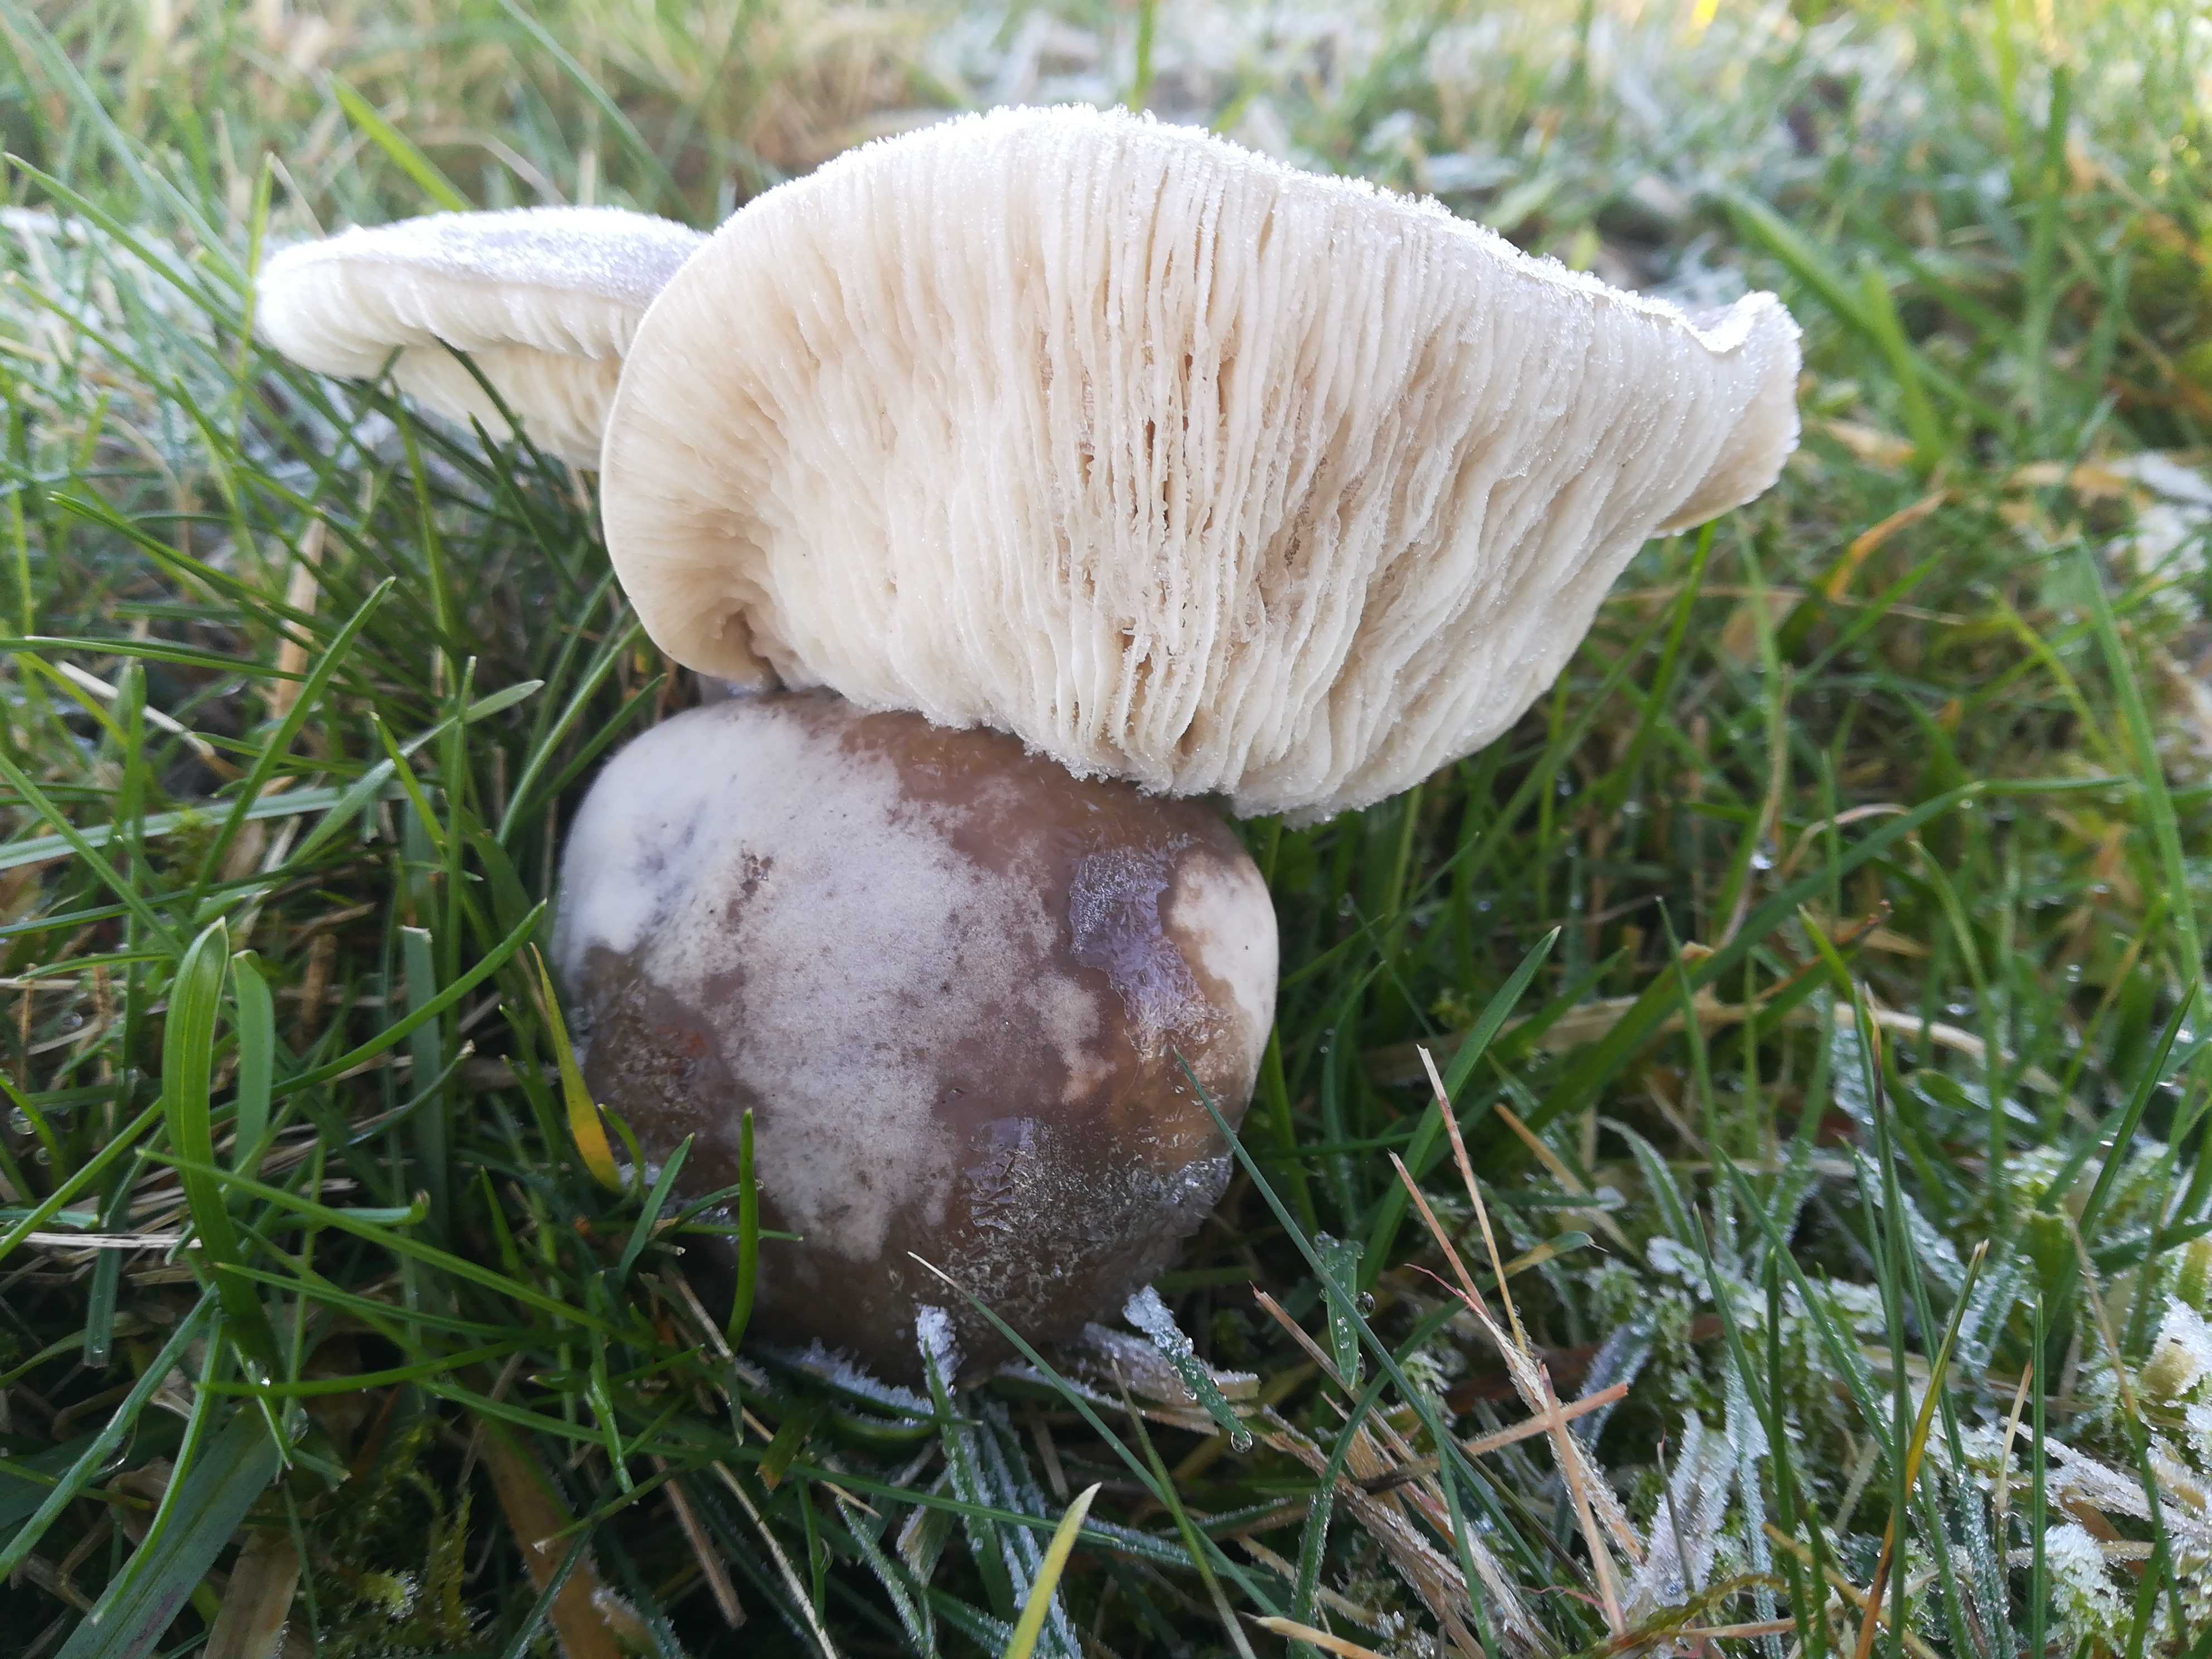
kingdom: Fungi
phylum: Basidiomycota
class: Agaricomycetes
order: Agaricales
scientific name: Agaricales
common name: champignonordenen
